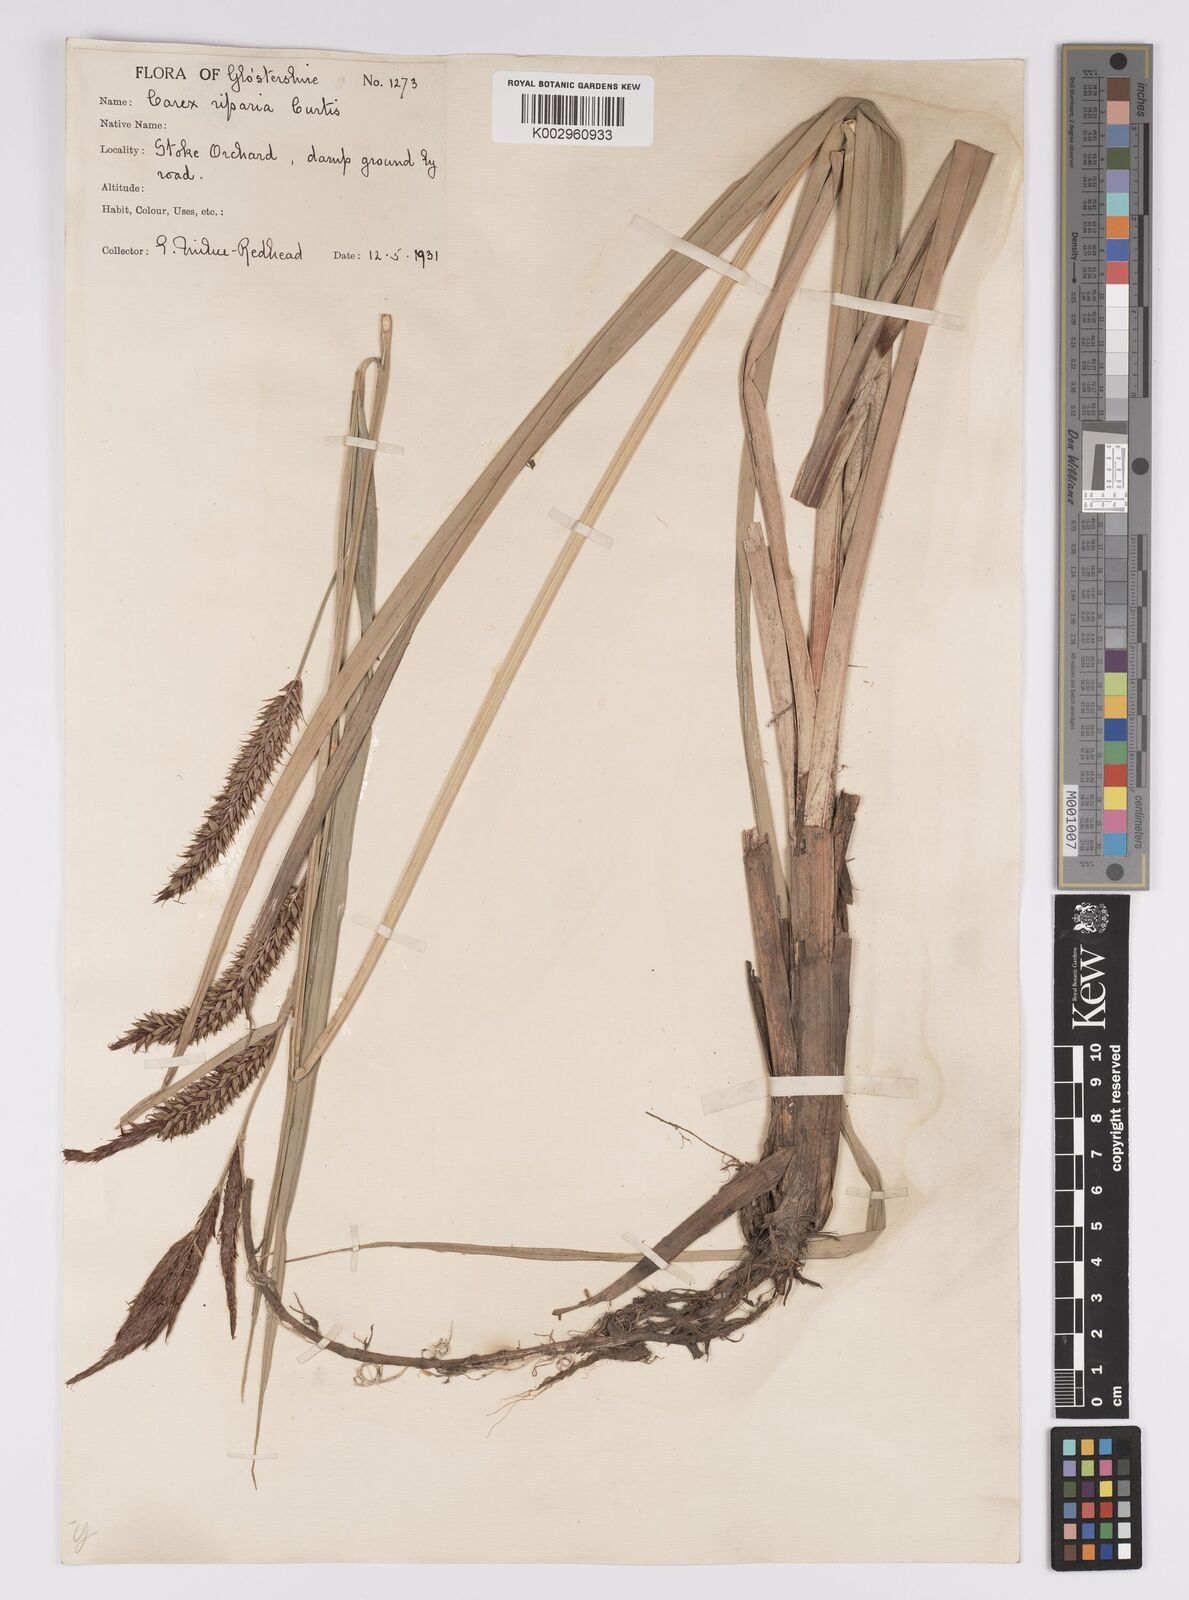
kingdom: Plantae
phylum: Tracheophyta
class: Liliopsida
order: Poales
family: Cyperaceae
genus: Carex
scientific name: Carex riparia
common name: Greater pond-sedge
